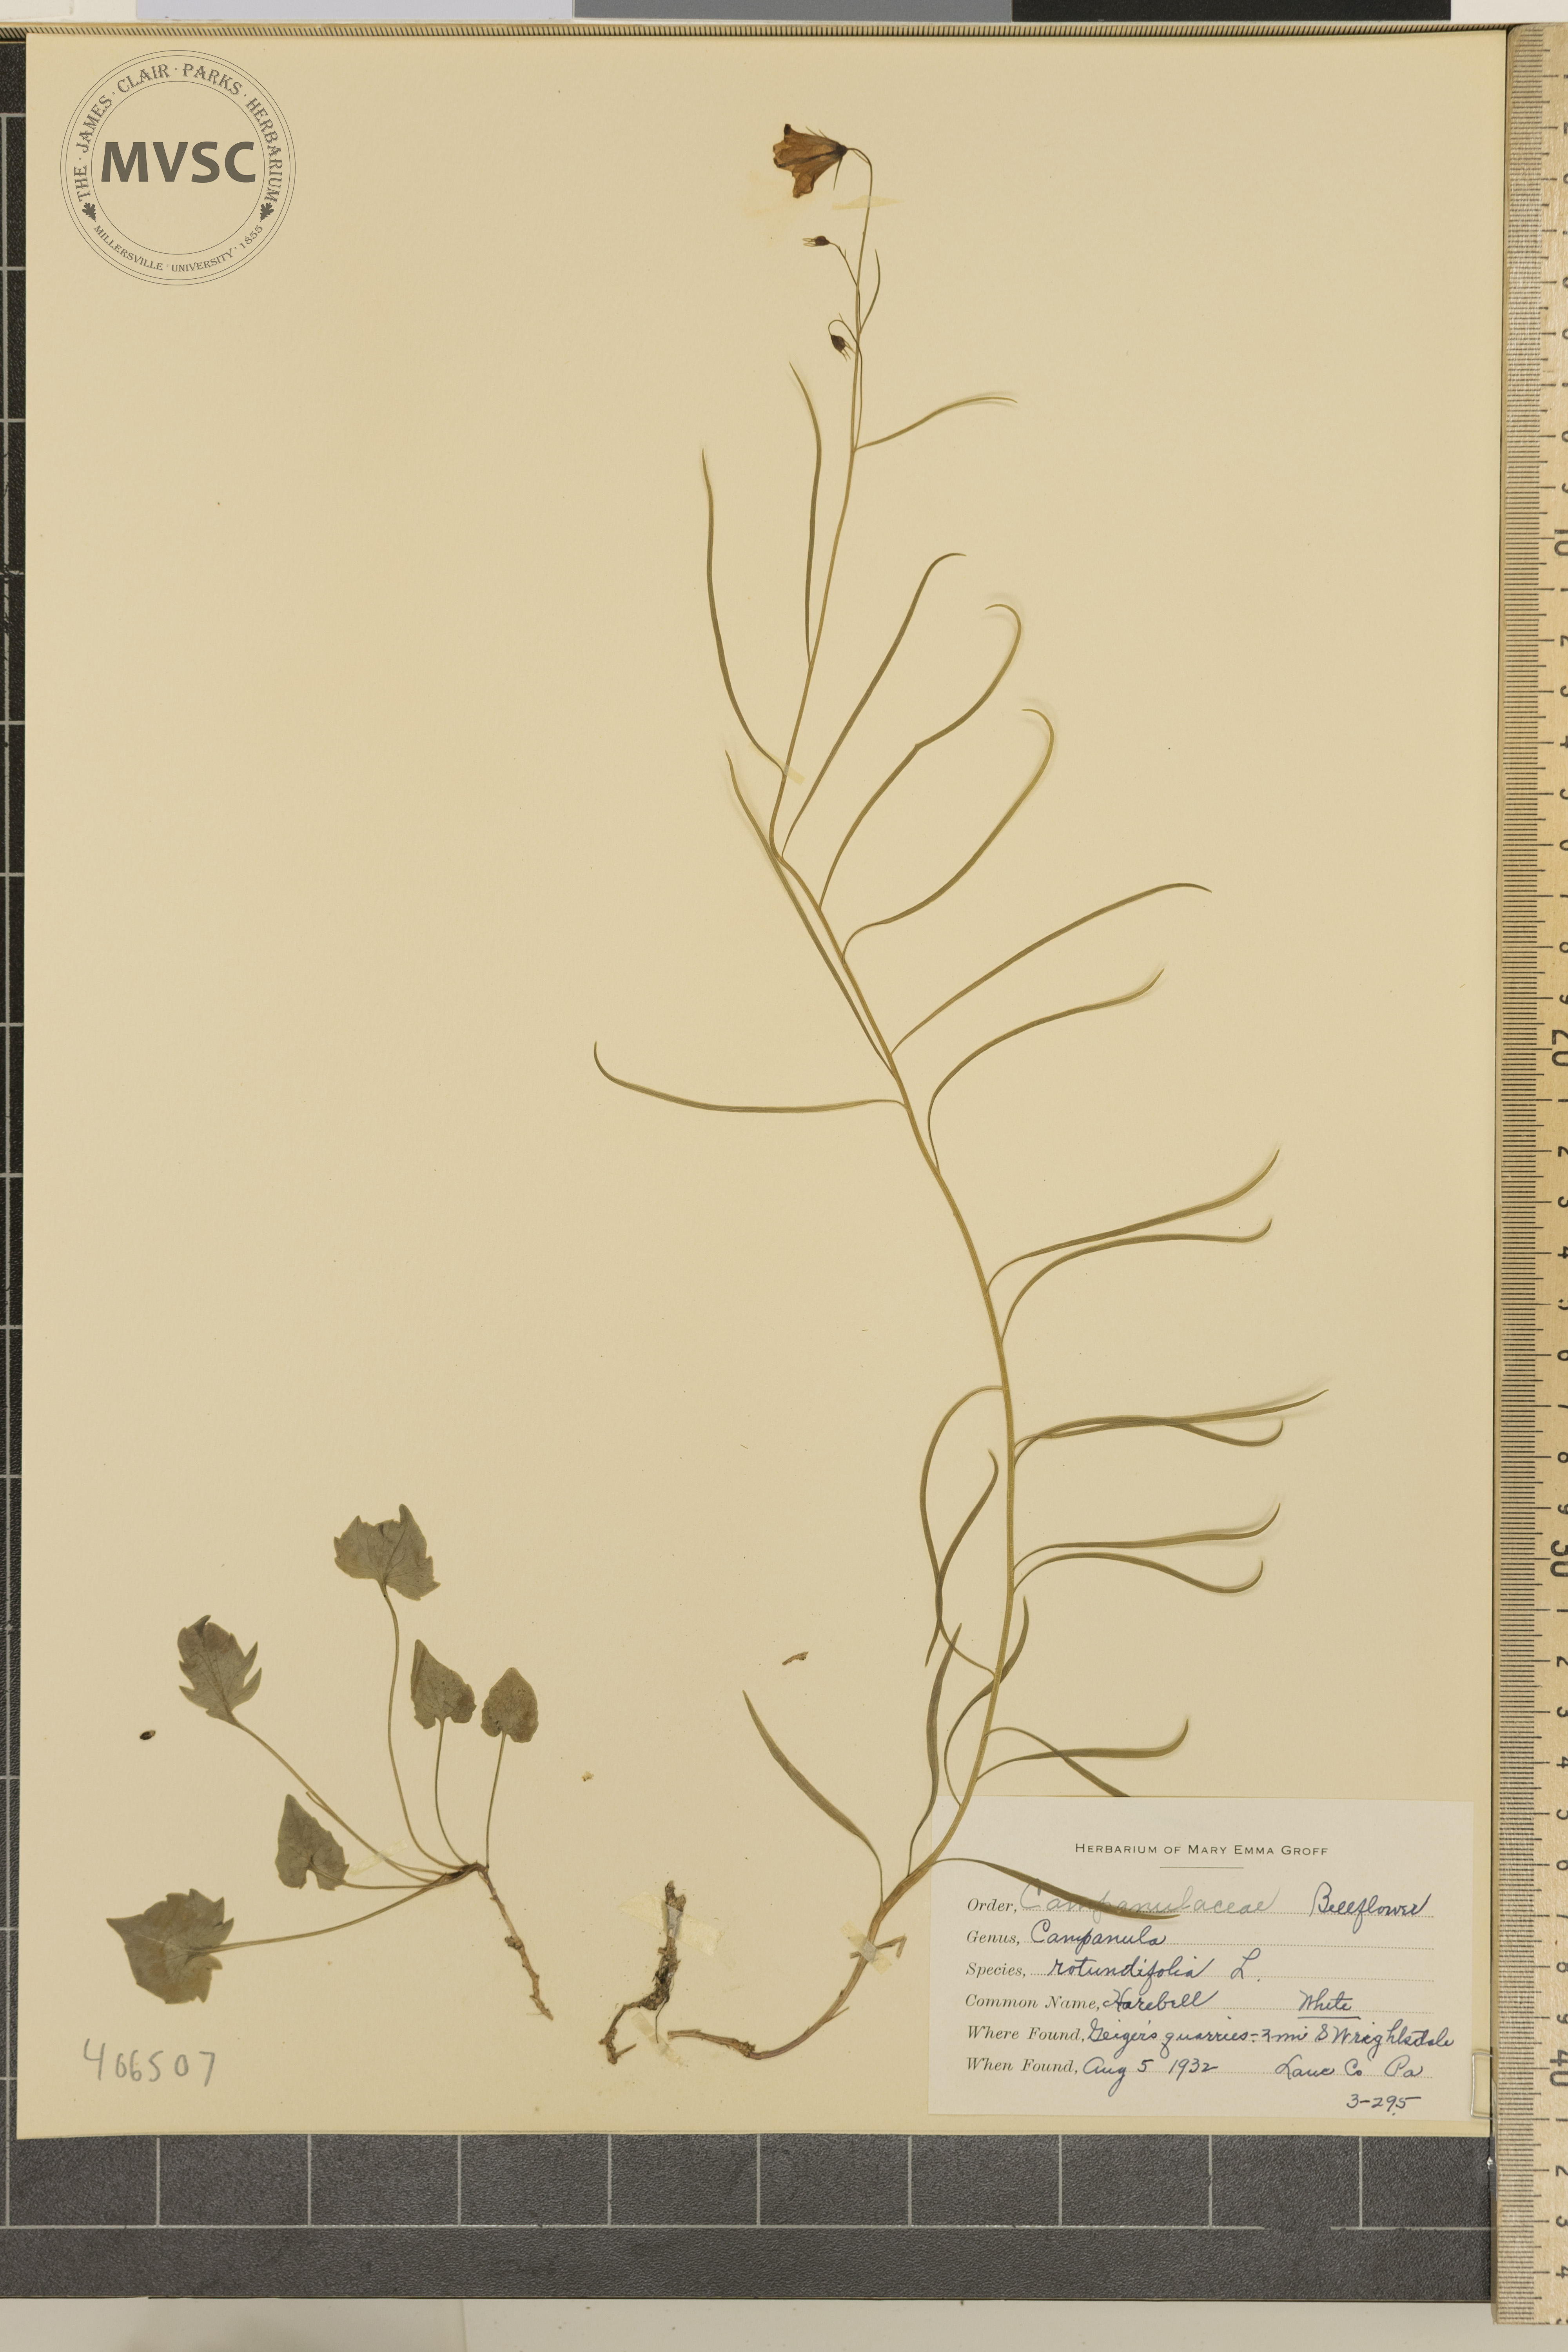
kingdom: Plantae
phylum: Tracheophyta
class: Magnoliopsida
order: Asterales
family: Campanulaceae
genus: Campanula
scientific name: Campanula rotundifolia
